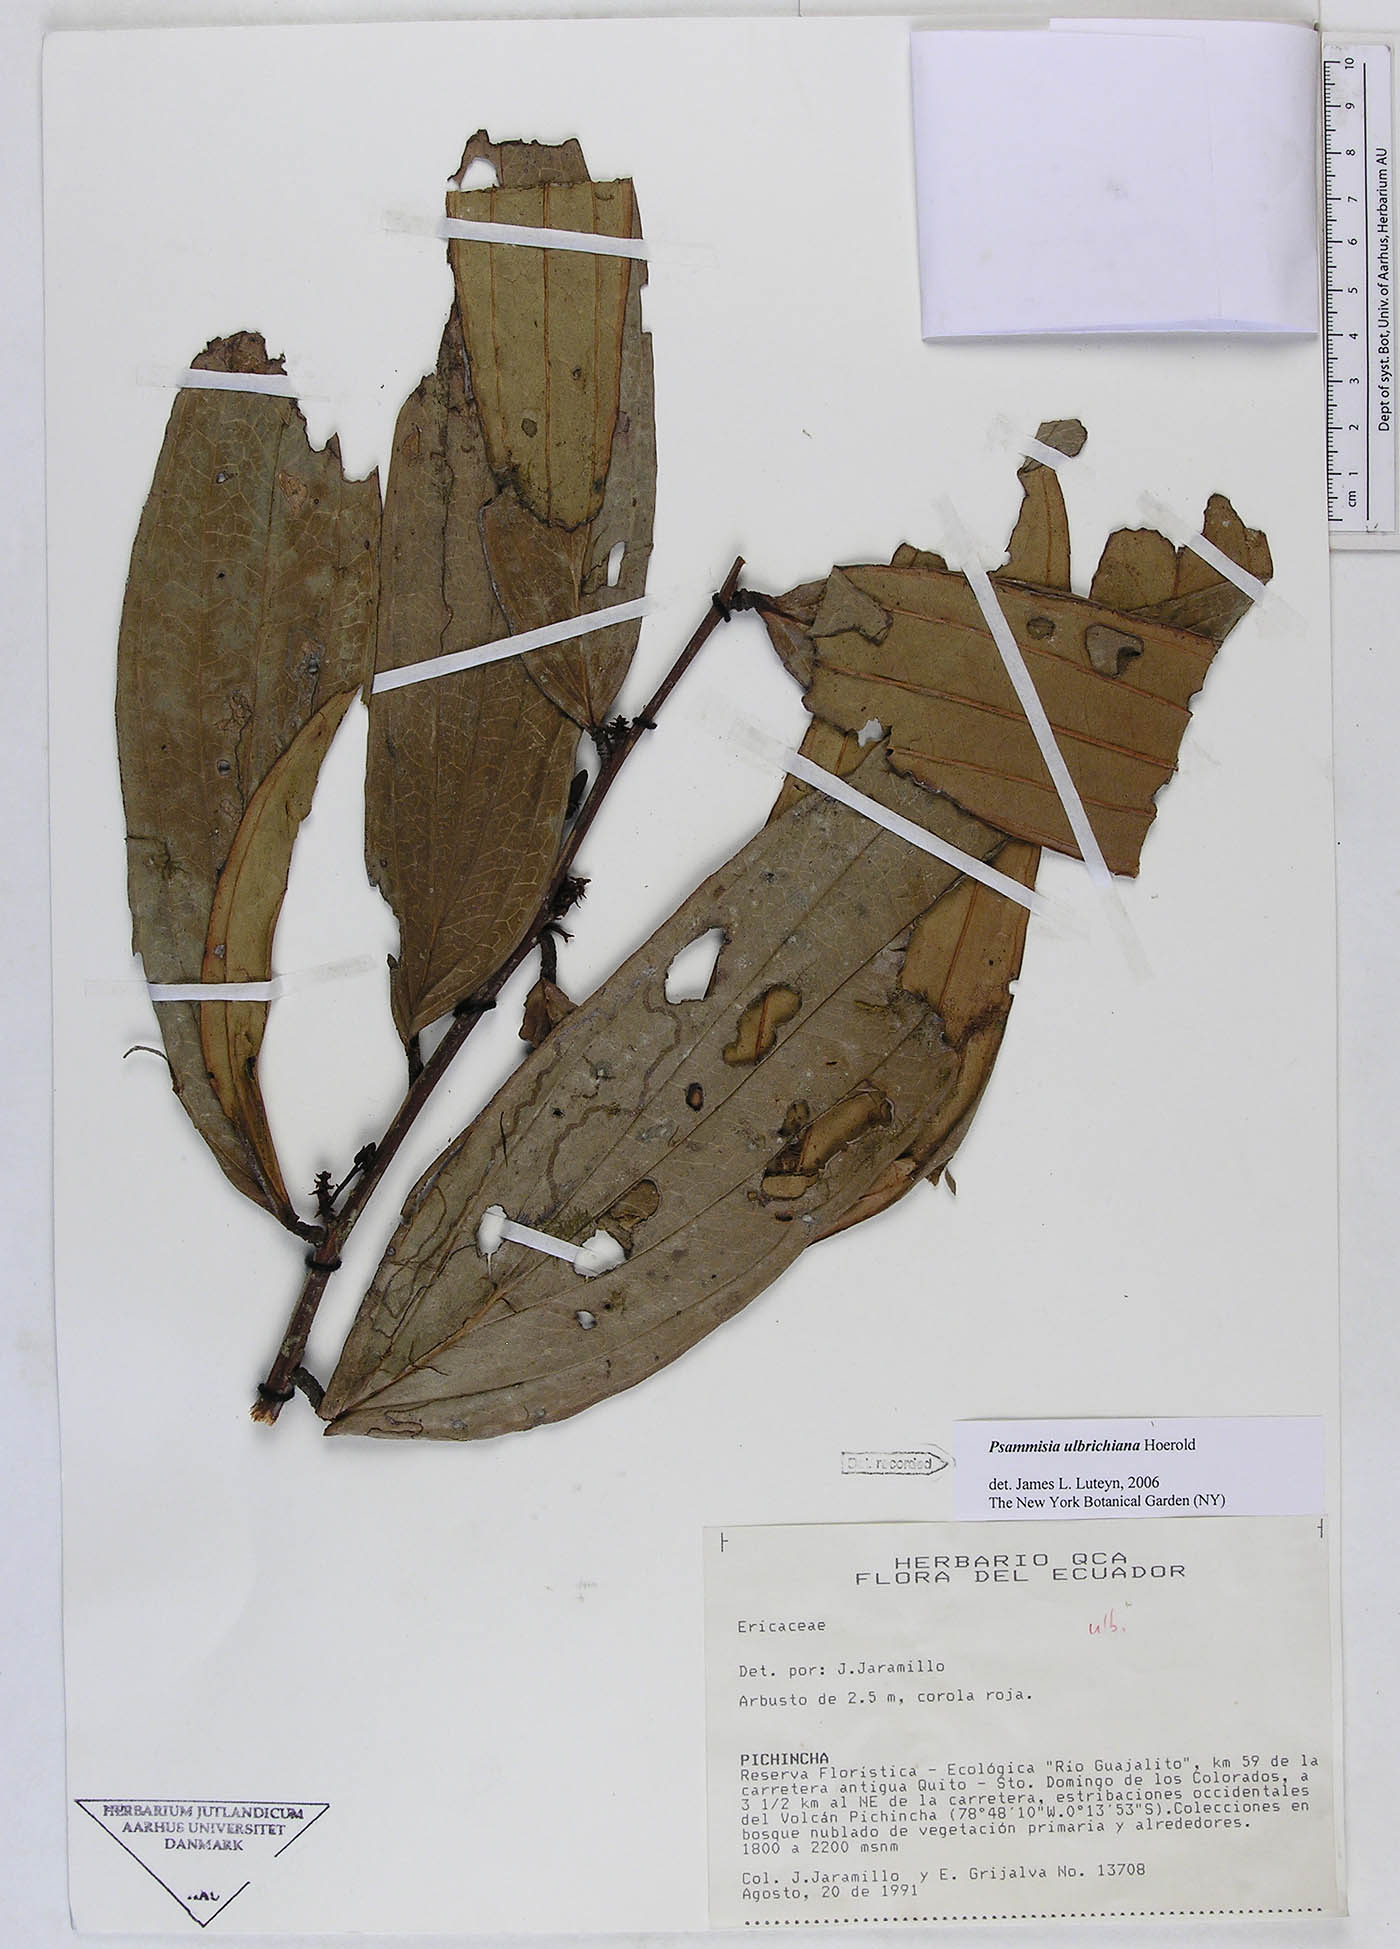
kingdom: Plantae
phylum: Tracheophyta
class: Magnoliopsida
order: Ericales
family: Ericaceae
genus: Psammisia
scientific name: Psammisia ulbrichiana
